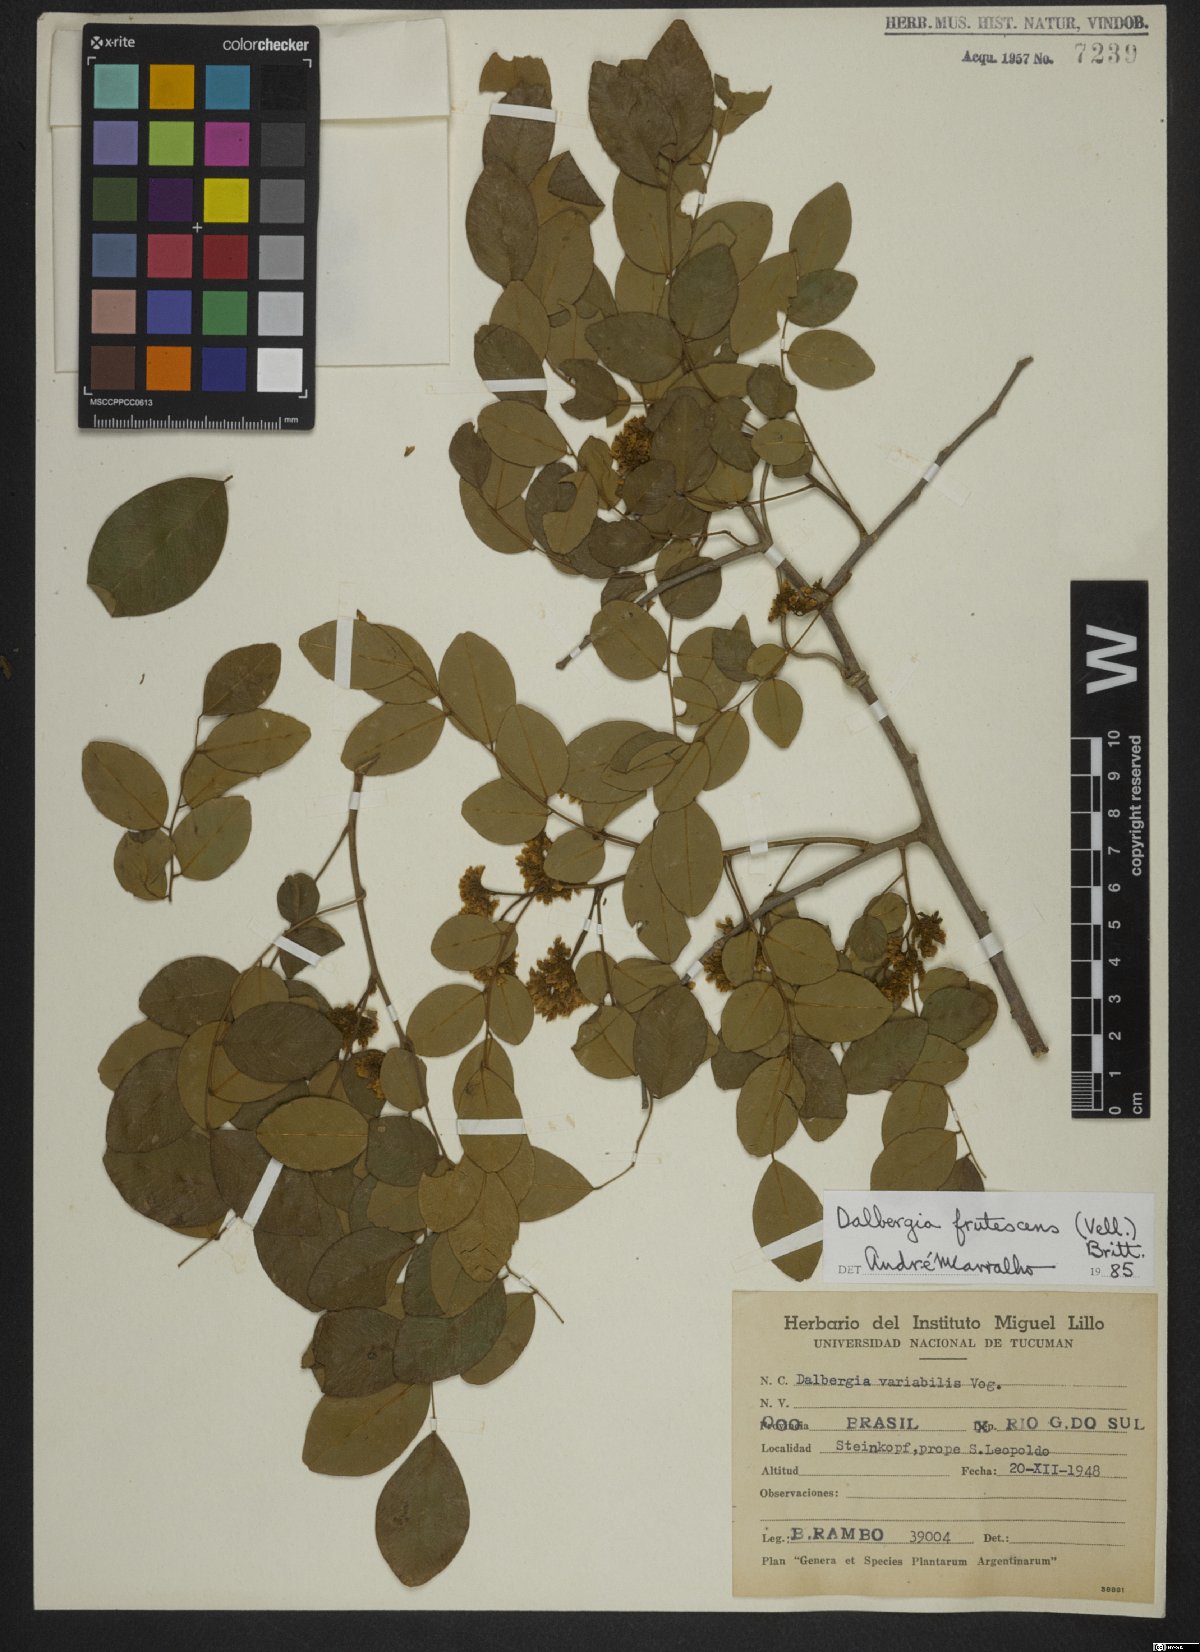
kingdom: Plantae
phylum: Tracheophyta
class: Magnoliopsida
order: Fabales
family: Fabaceae
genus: Dalbergia
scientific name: Dalbergia frutescens
